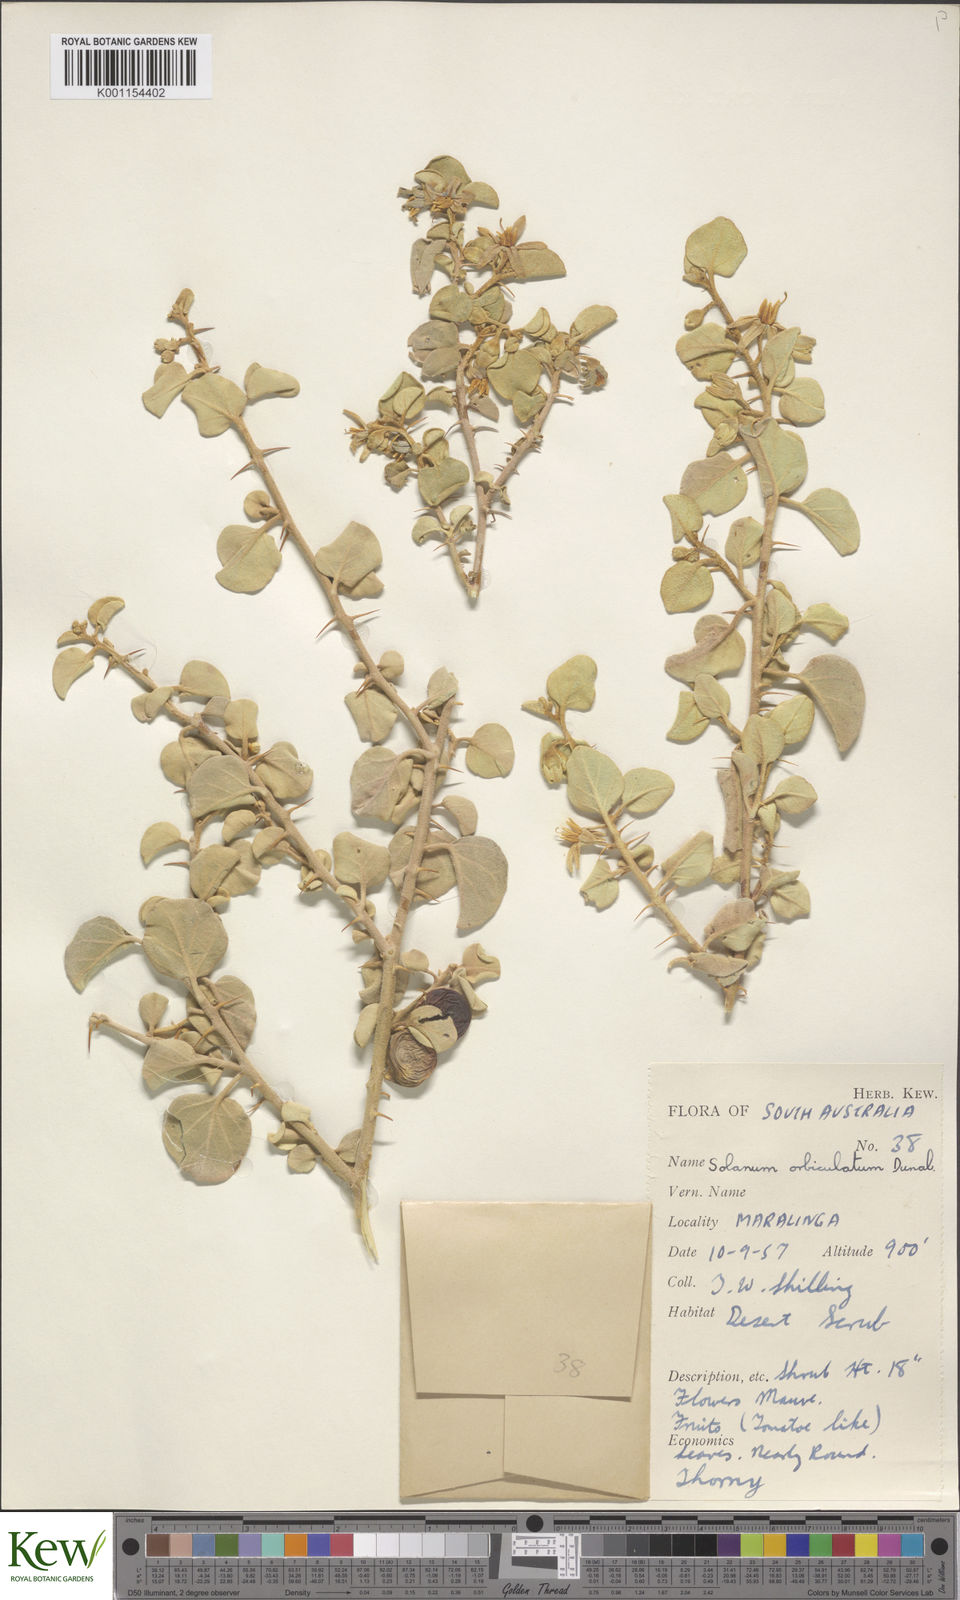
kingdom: Plantae
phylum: Tracheophyta
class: Magnoliopsida
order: Solanales
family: Solanaceae
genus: Solanum
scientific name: Solanum orbiculatum
